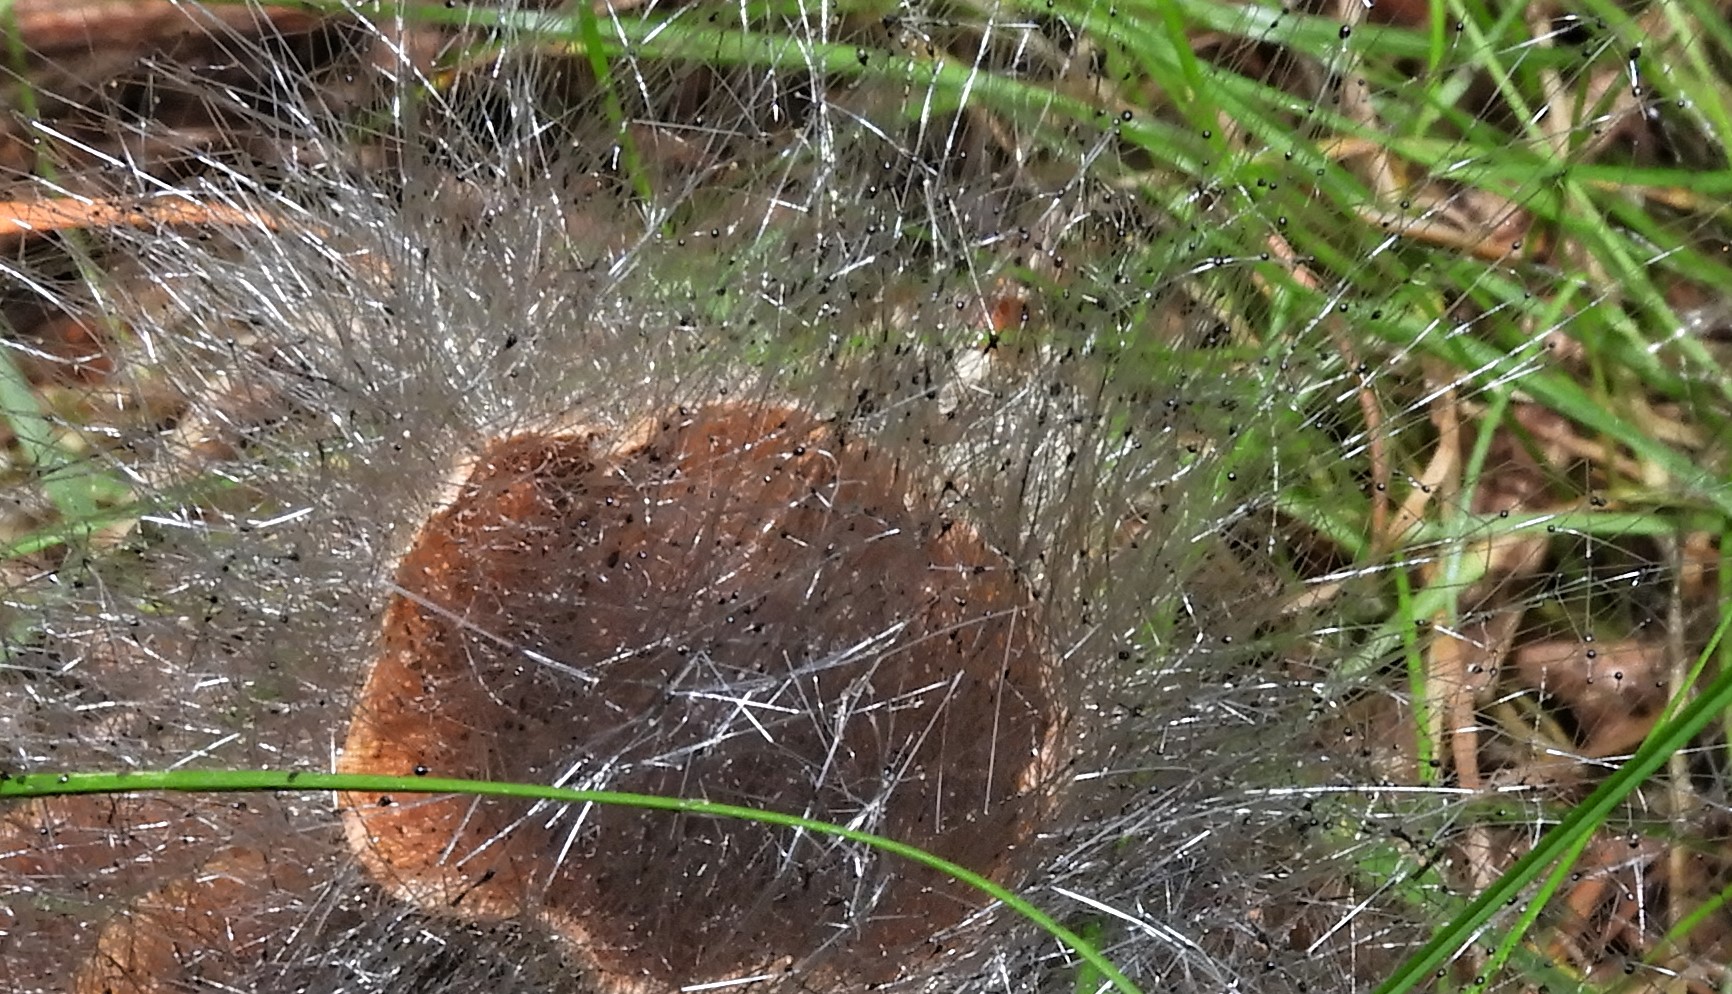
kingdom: Fungi
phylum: Mucoromycota
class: Mucoromycetes
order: Mucorales
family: Phycomycetaceae
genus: Spinellus
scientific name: Spinellus fusiger
